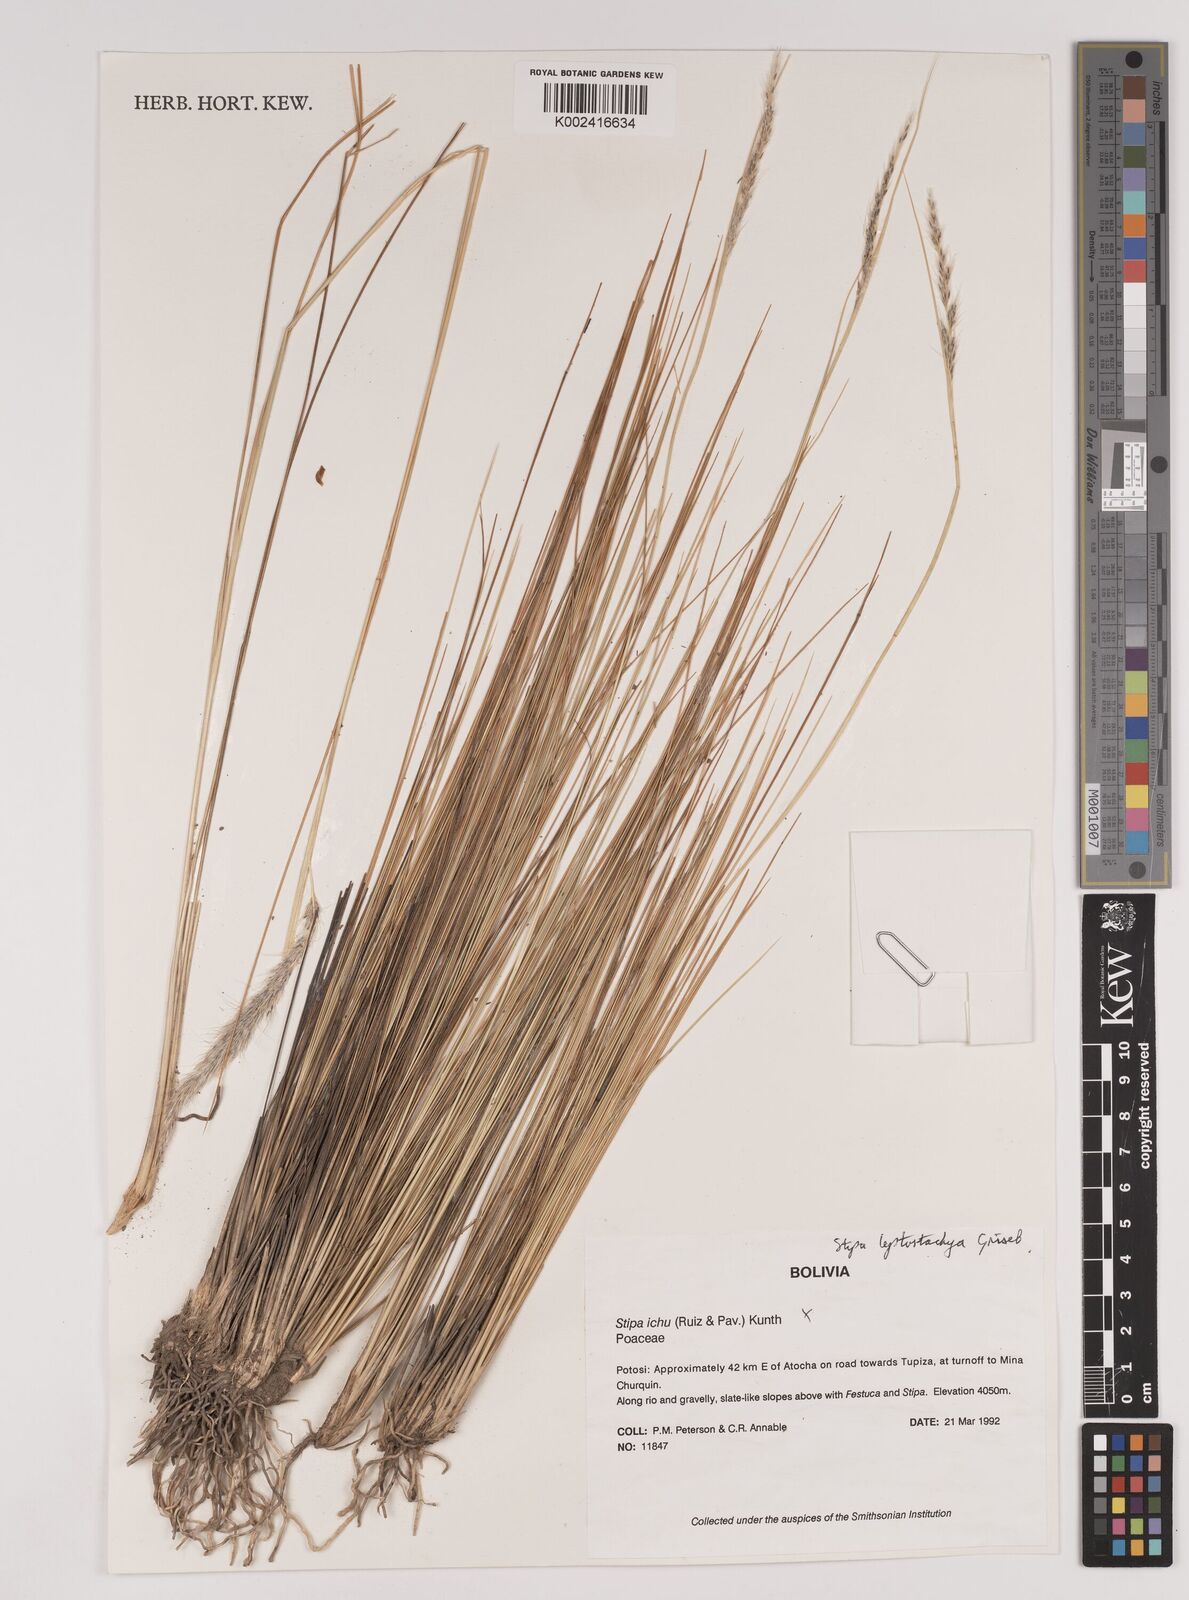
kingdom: Plantae
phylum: Tracheophyta
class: Liliopsida
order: Poales
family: Poaceae
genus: Jarava
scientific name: Jarava leptostachya
